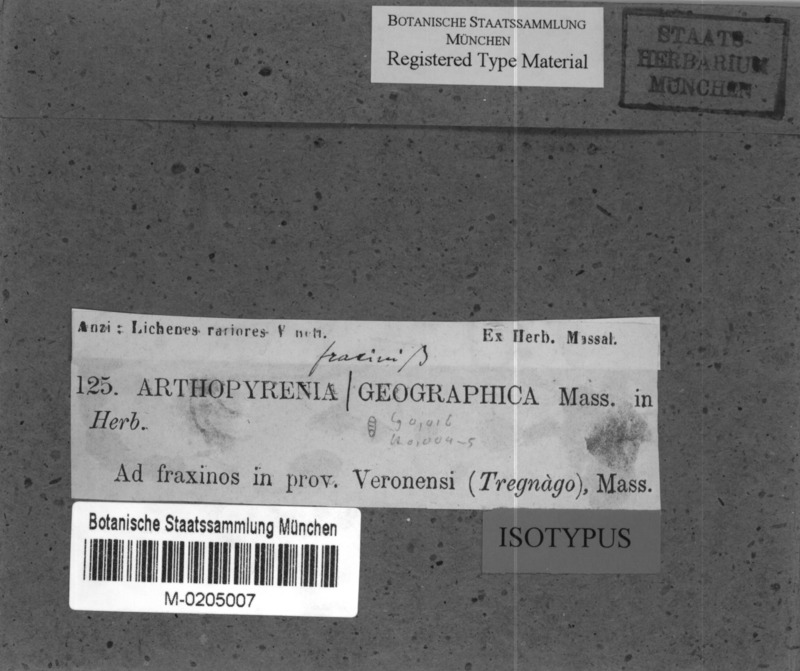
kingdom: Fungi
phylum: Ascomycota
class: Dothideomycetes
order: Pleosporales
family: Naetrocymbaceae
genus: Naetrocymbe
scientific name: Naetrocymbe punctiformis
